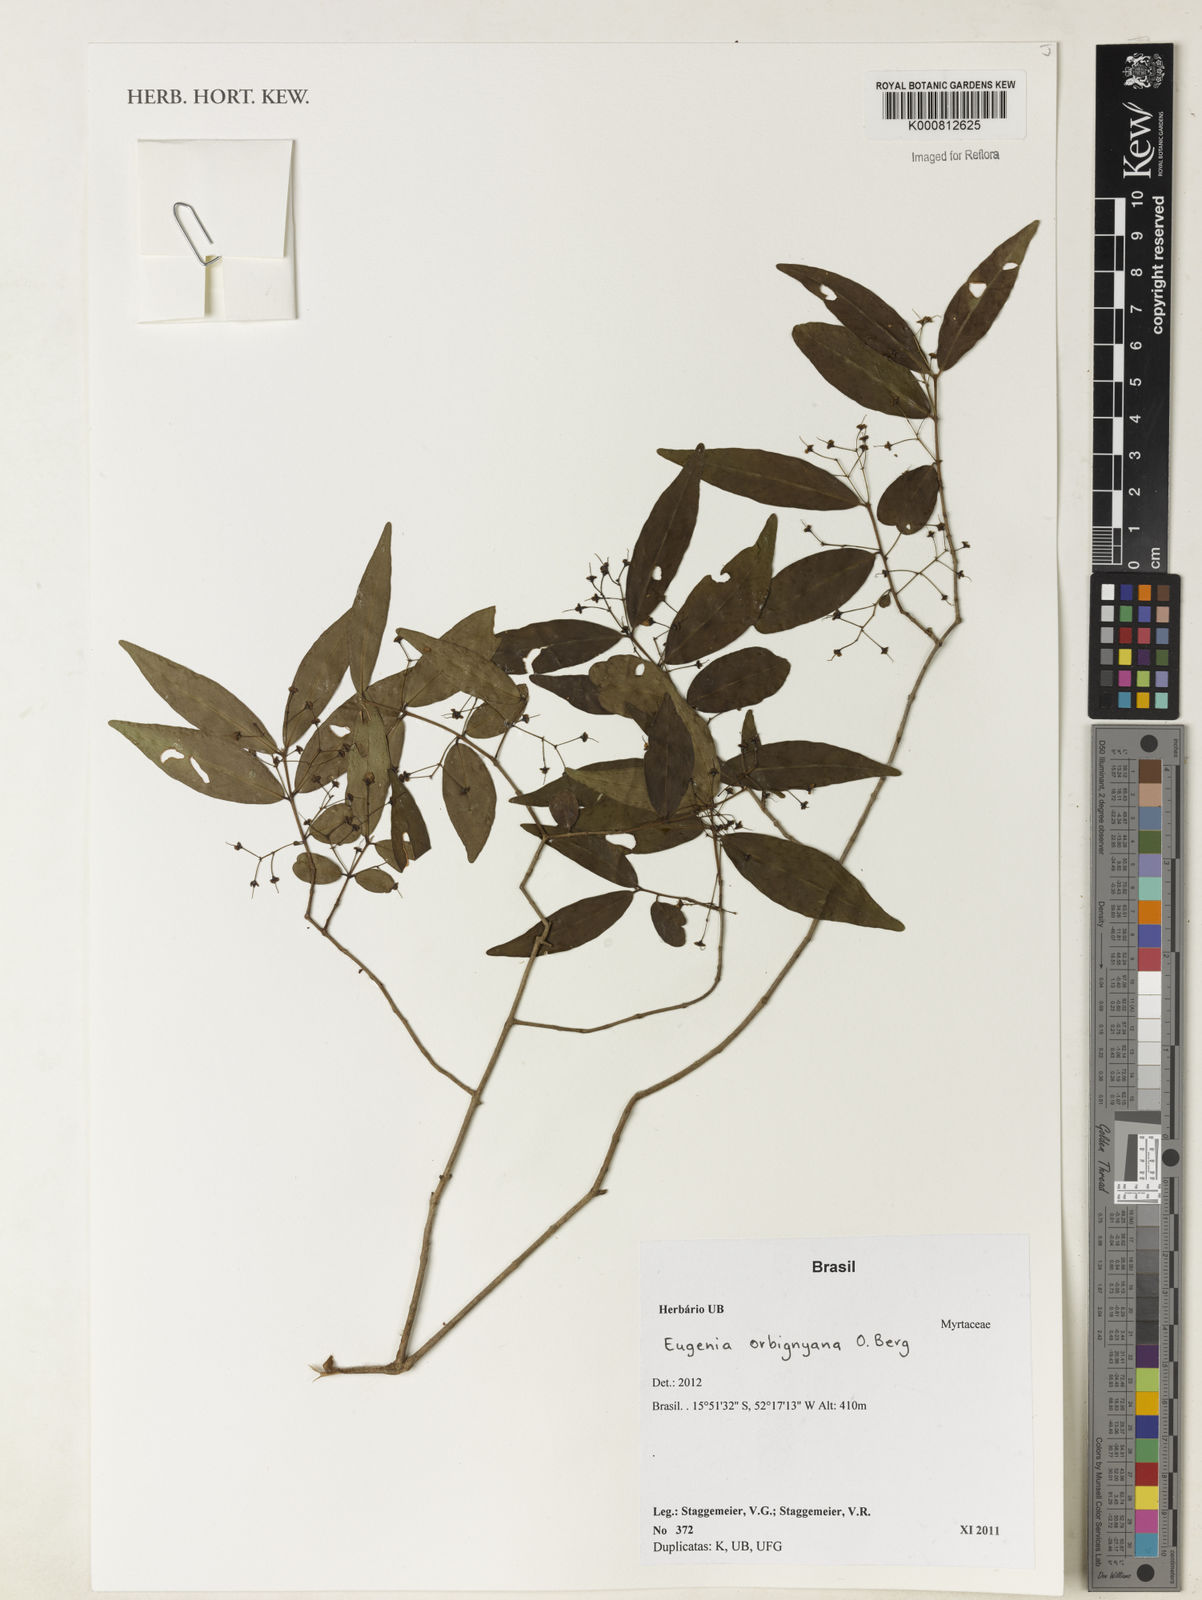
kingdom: Plantae
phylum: Tracheophyta
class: Magnoliopsida
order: Myrtales
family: Myrtaceae
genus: Eugenia
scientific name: Eugenia orbignyana
